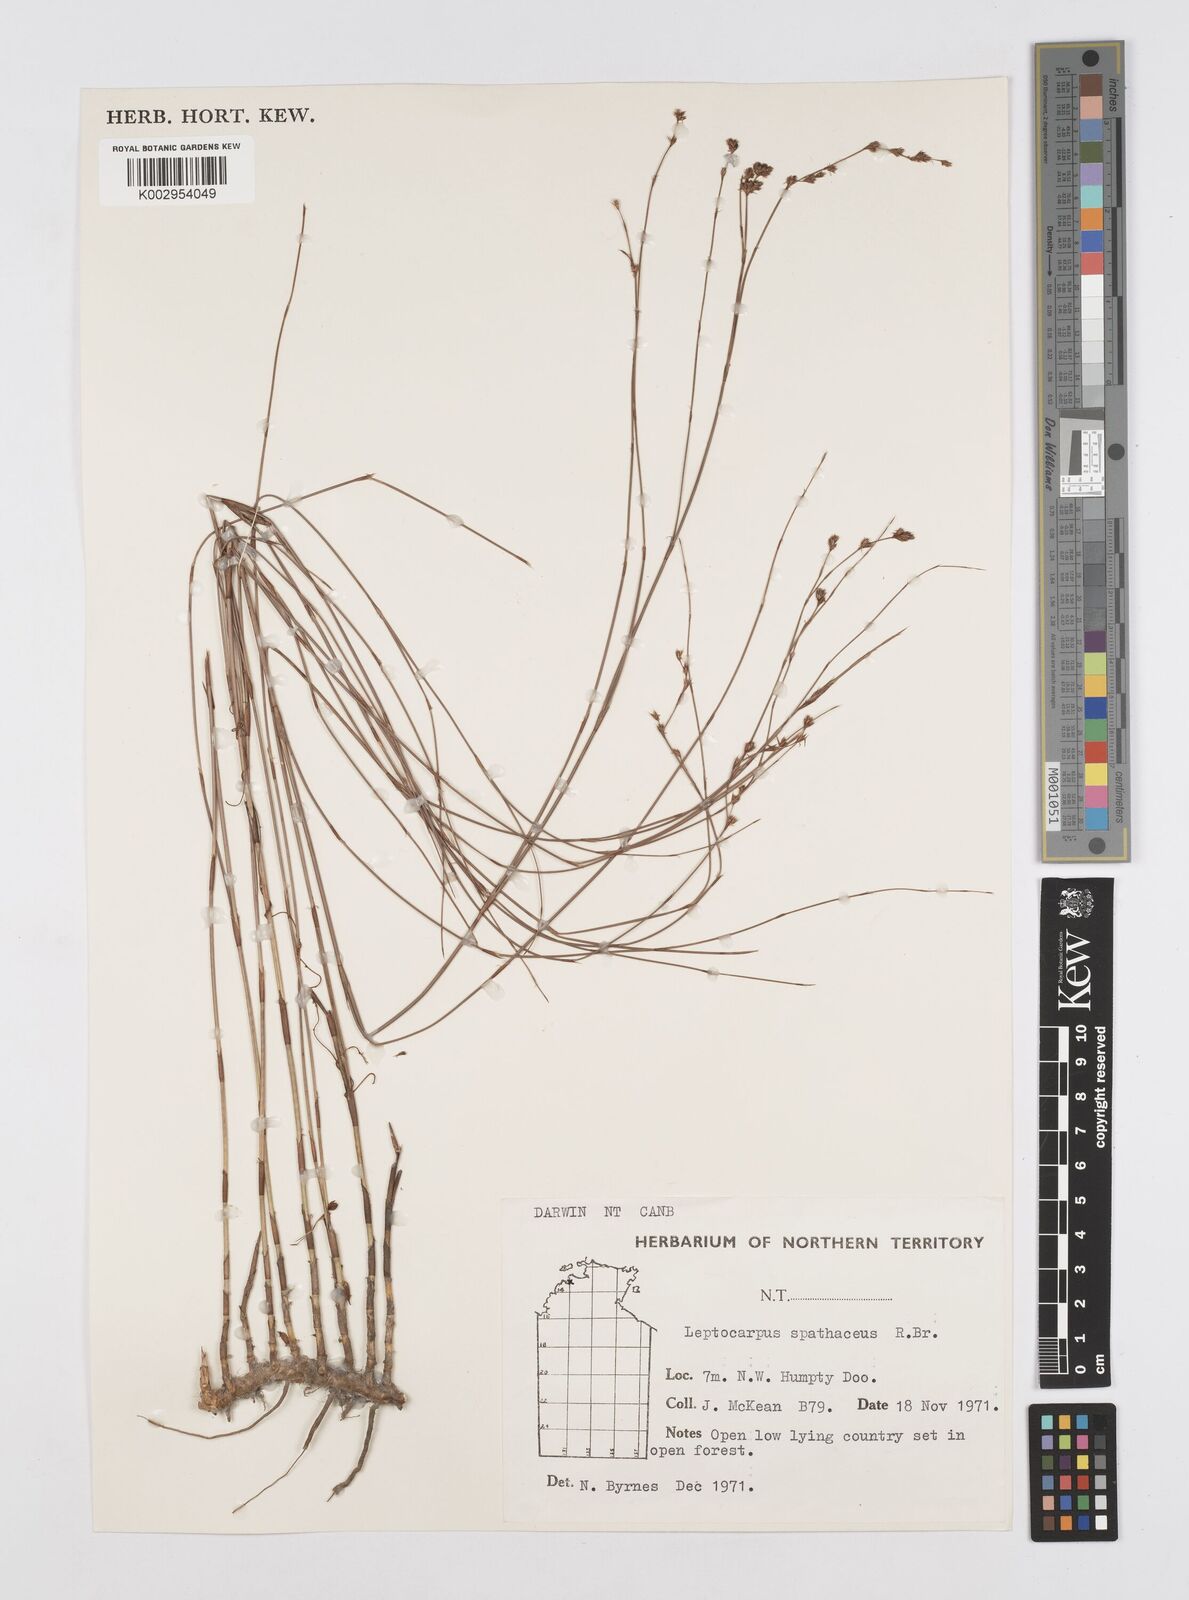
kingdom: Plantae
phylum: Tracheophyta
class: Liliopsida
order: Poales
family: Restionaceae
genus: Dapsilanthus
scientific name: Dapsilanthus spathaceus
